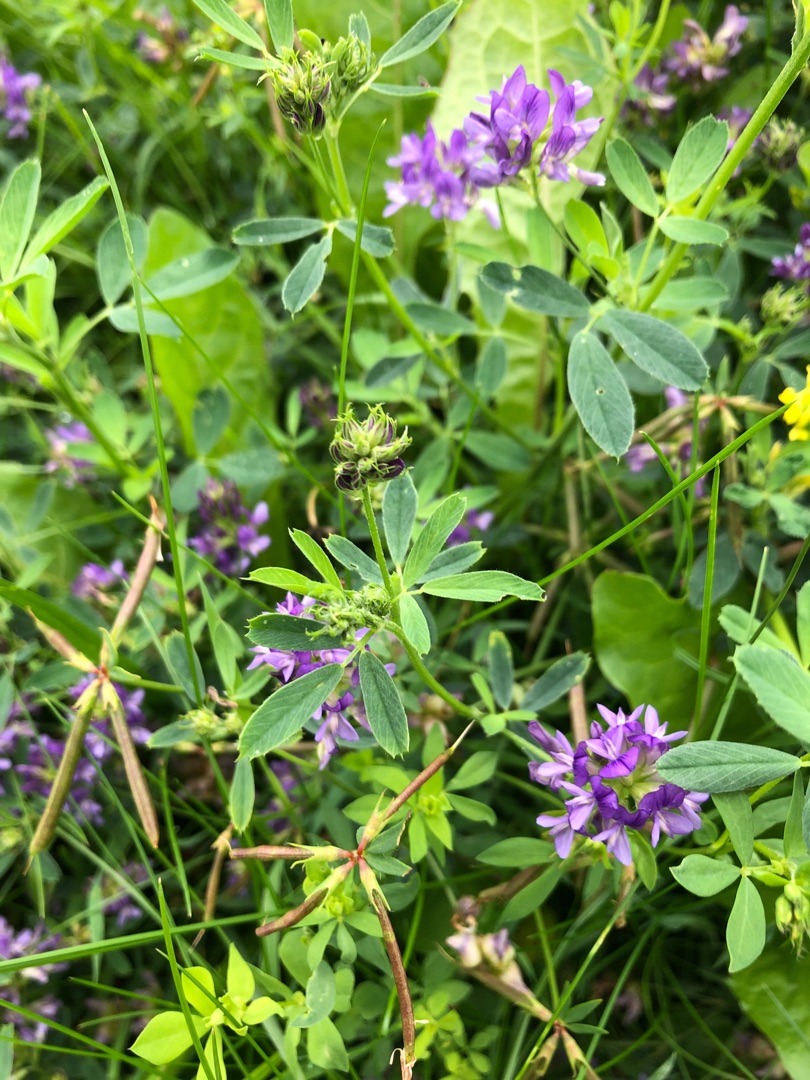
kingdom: Plantae
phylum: Tracheophyta
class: Magnoliopsida
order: Fabales
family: Fabaceae
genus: Medicago
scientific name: Medicago sativa
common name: Foderlucerne
